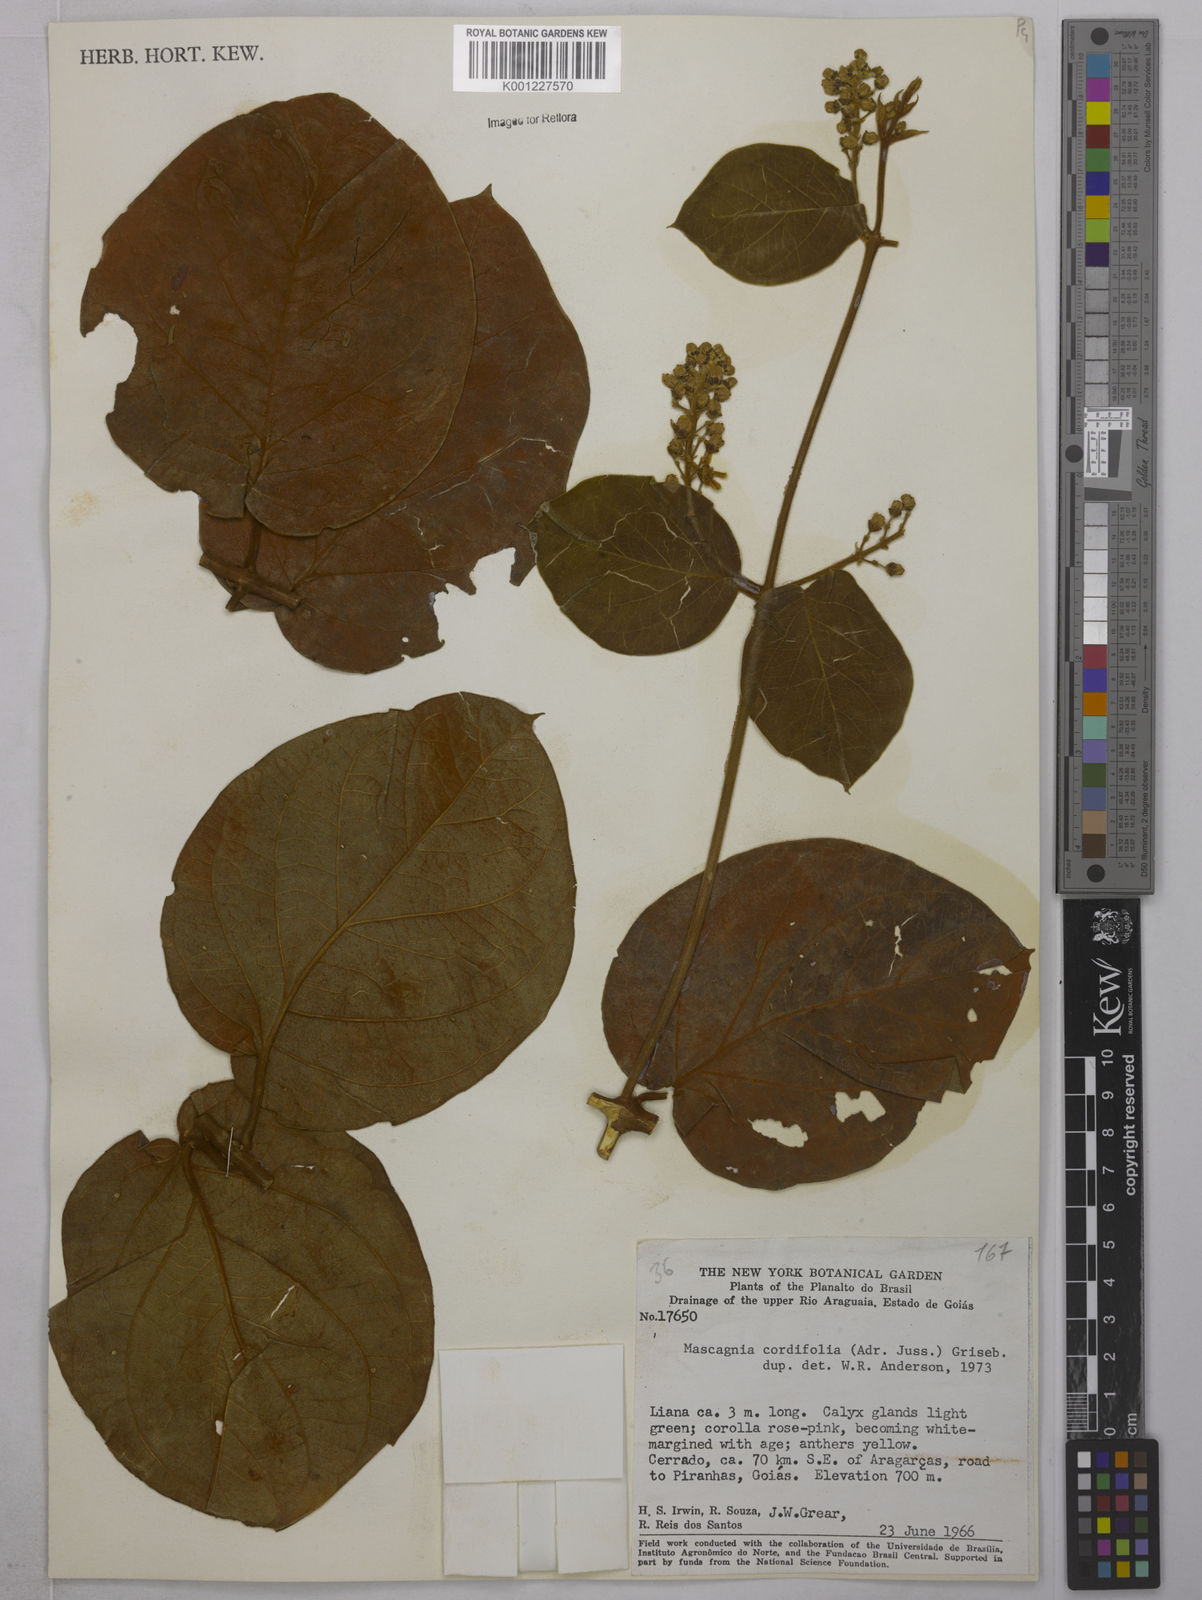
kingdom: Plantae
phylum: Tracheophyta
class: Magnoliopsida
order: Malpighiales
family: Malpighiaceae
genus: Mascagnia
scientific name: Mascagnia cordifolia
